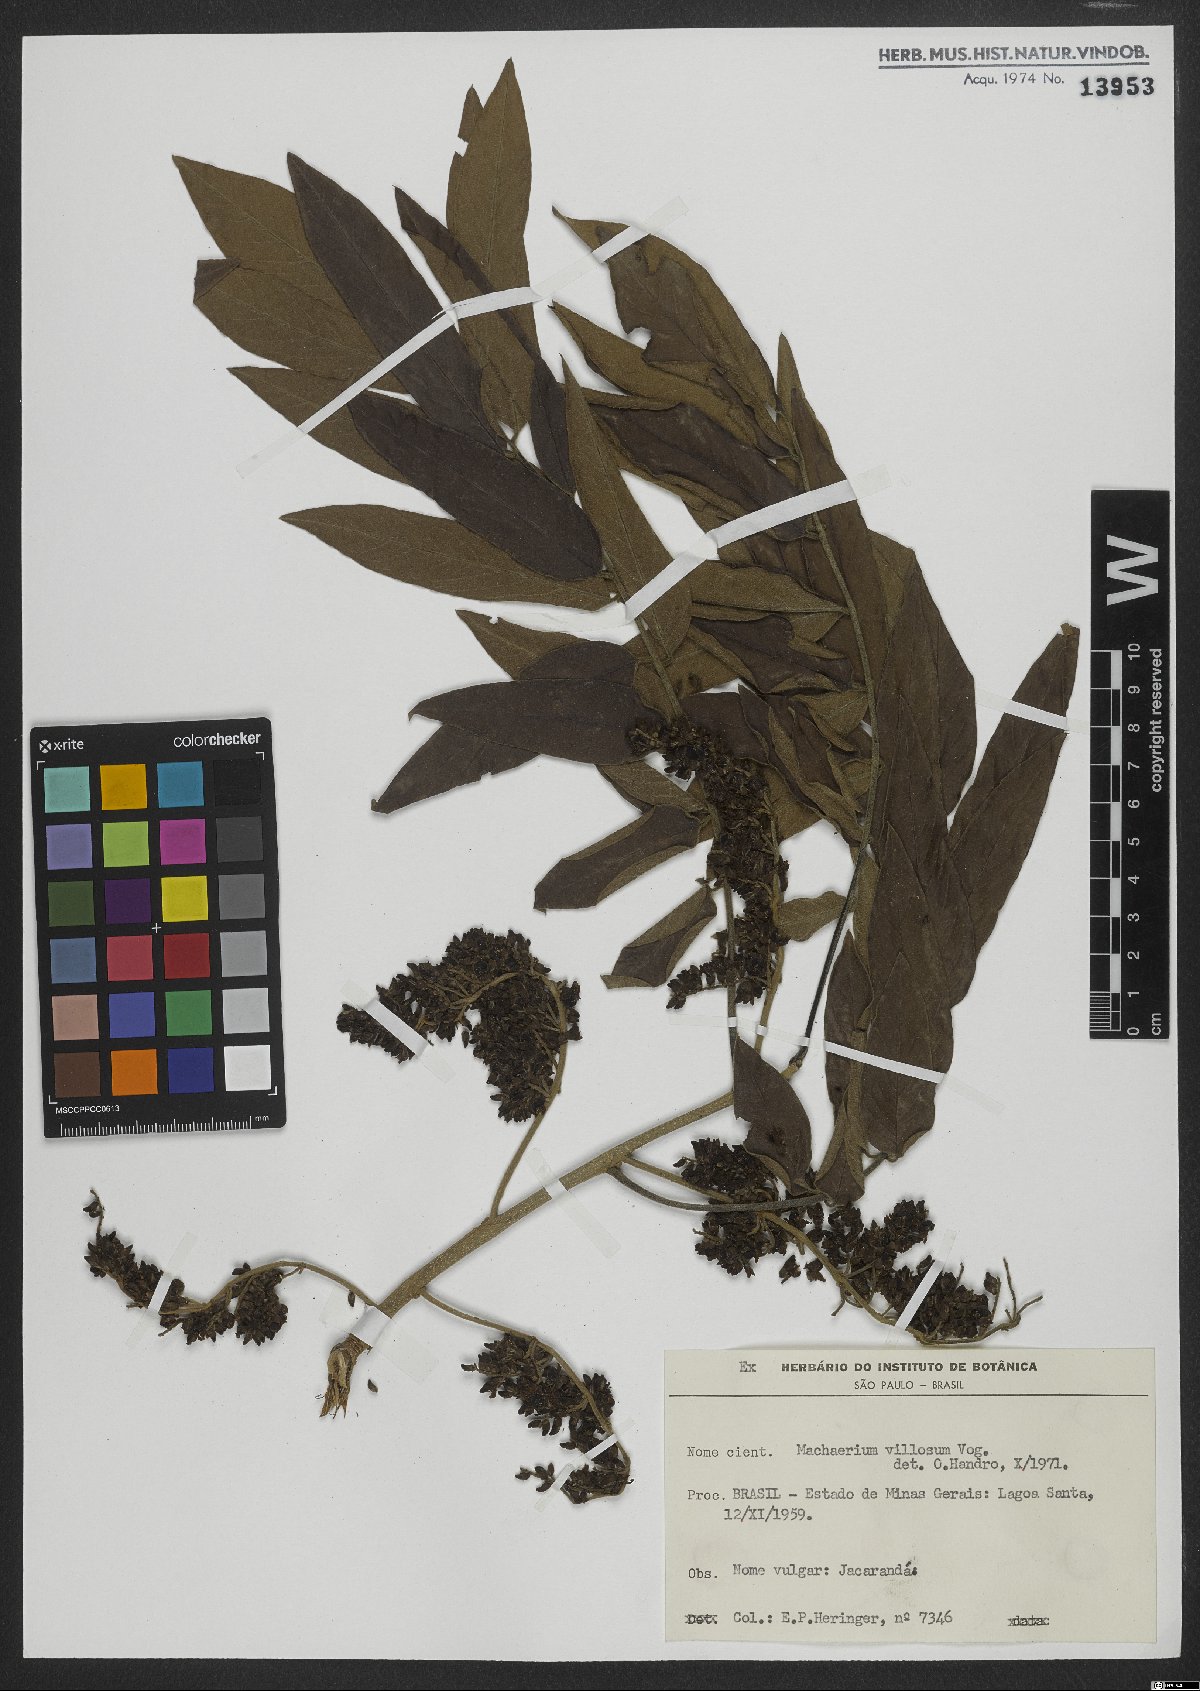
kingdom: Plantae
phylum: Tracheophyta
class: Magnoliopsida
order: Fabales
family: Fabaceae
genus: Machaerium
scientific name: Machaerium villosum
